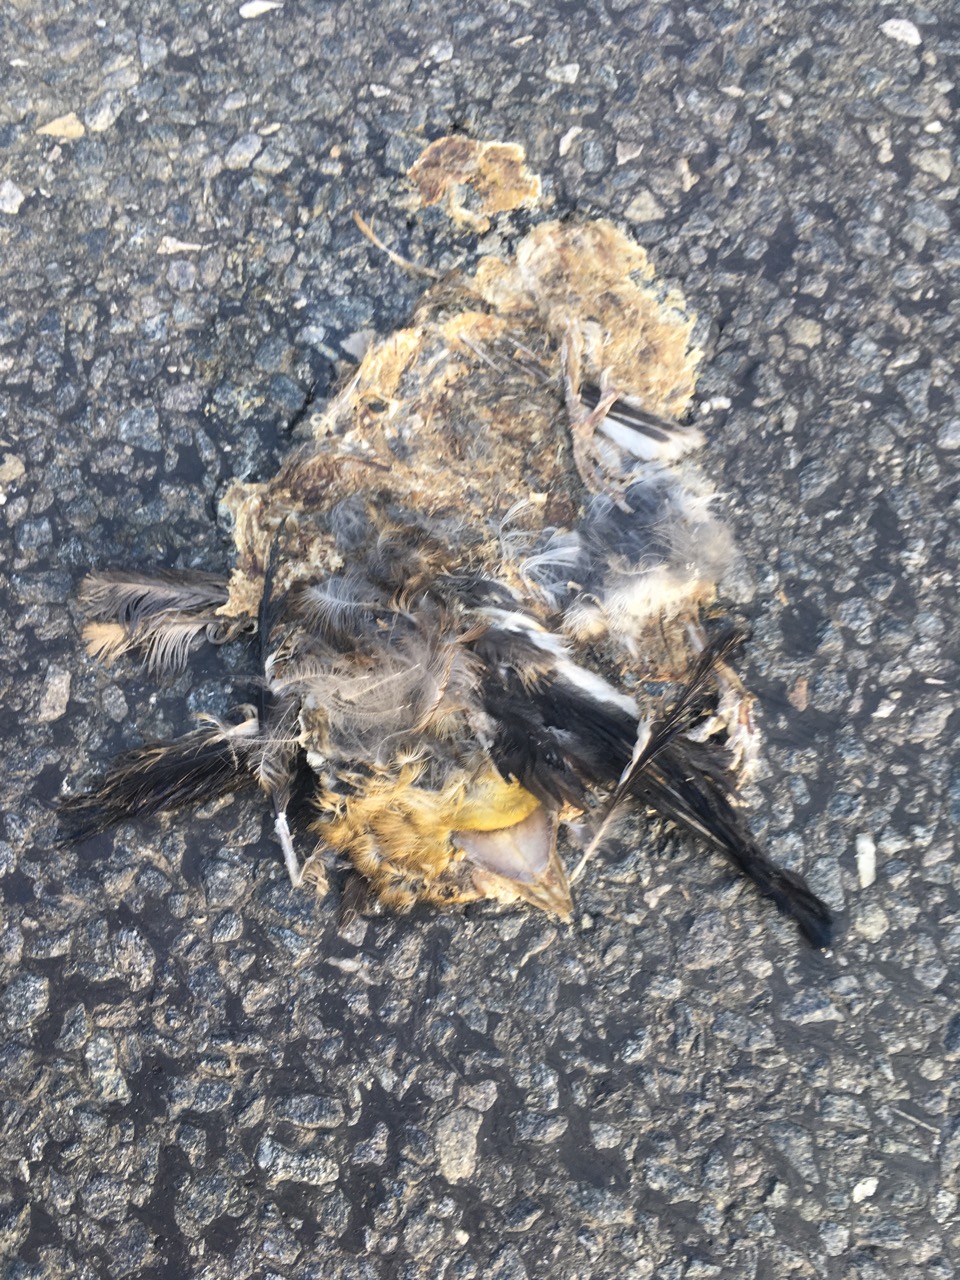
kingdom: Animalia
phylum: Chordata
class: Aves
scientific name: Aves
